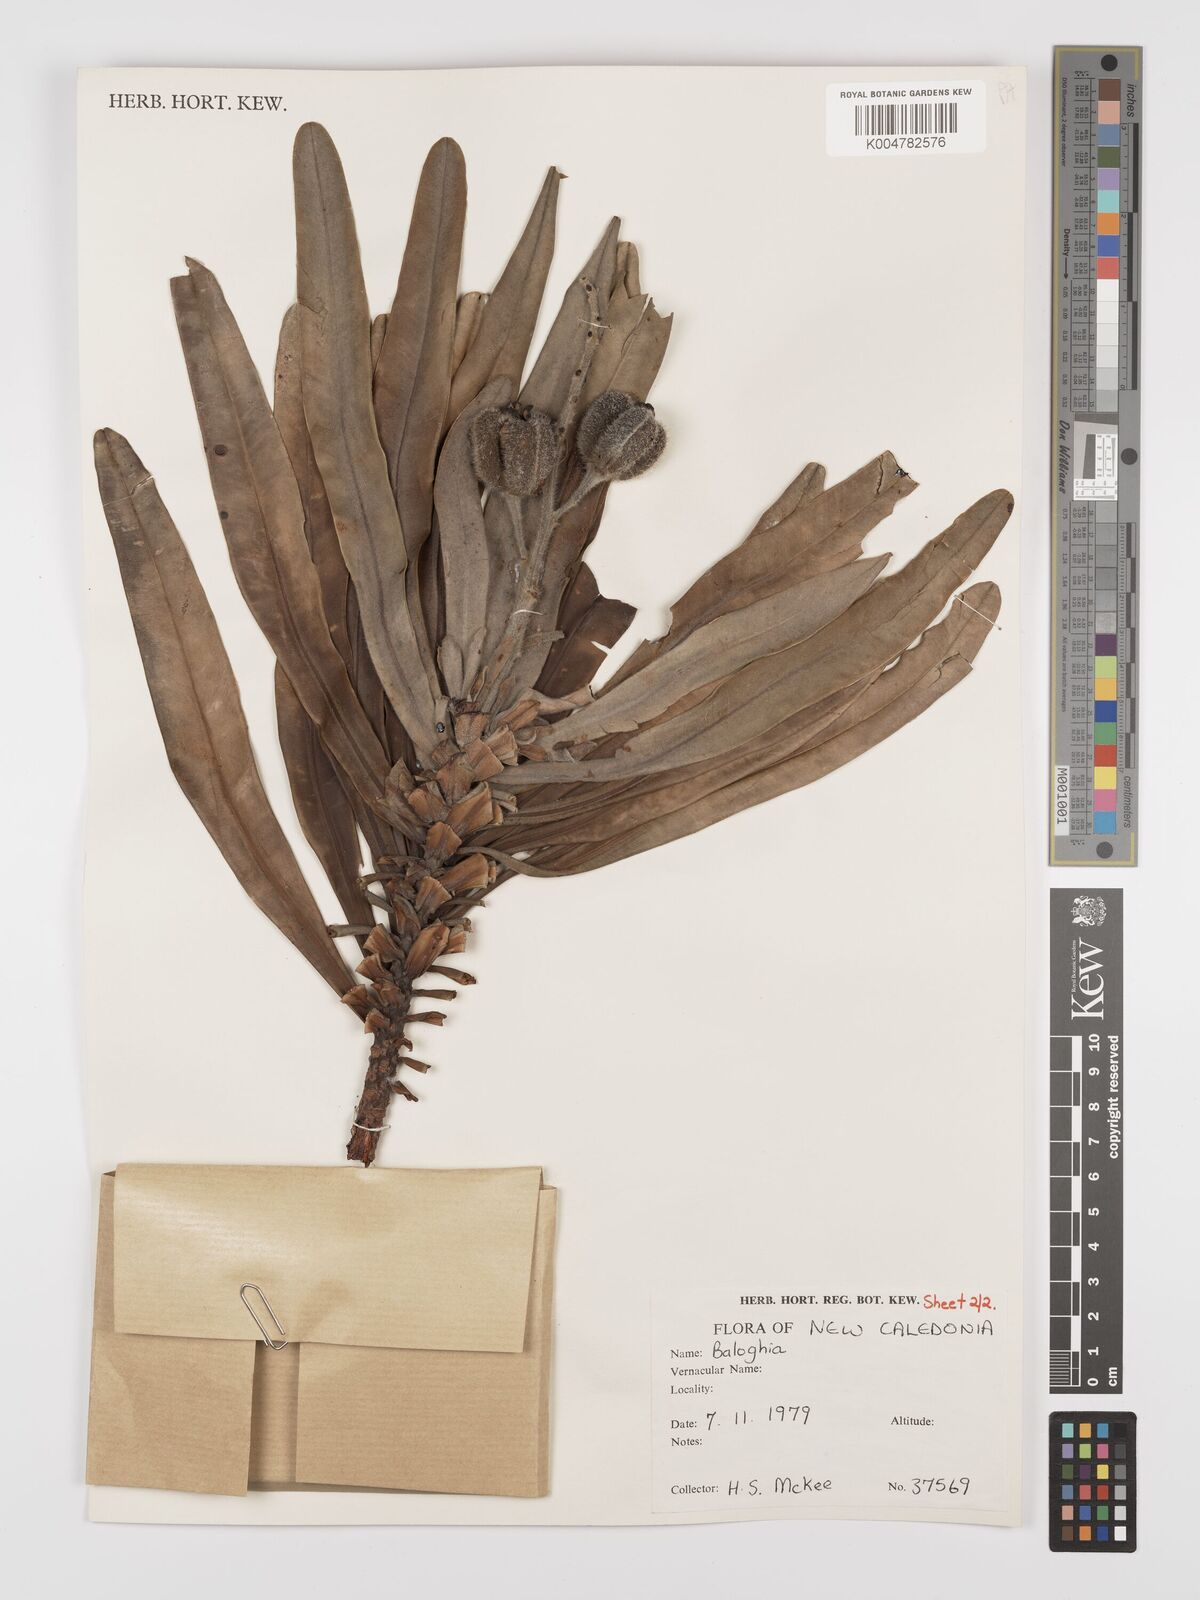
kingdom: Plantae
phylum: Tracheophyta
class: Magnoliopsida
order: Malpighiales
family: Euphorbiaceae
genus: Baloghia
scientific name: Baloghia anisomera
